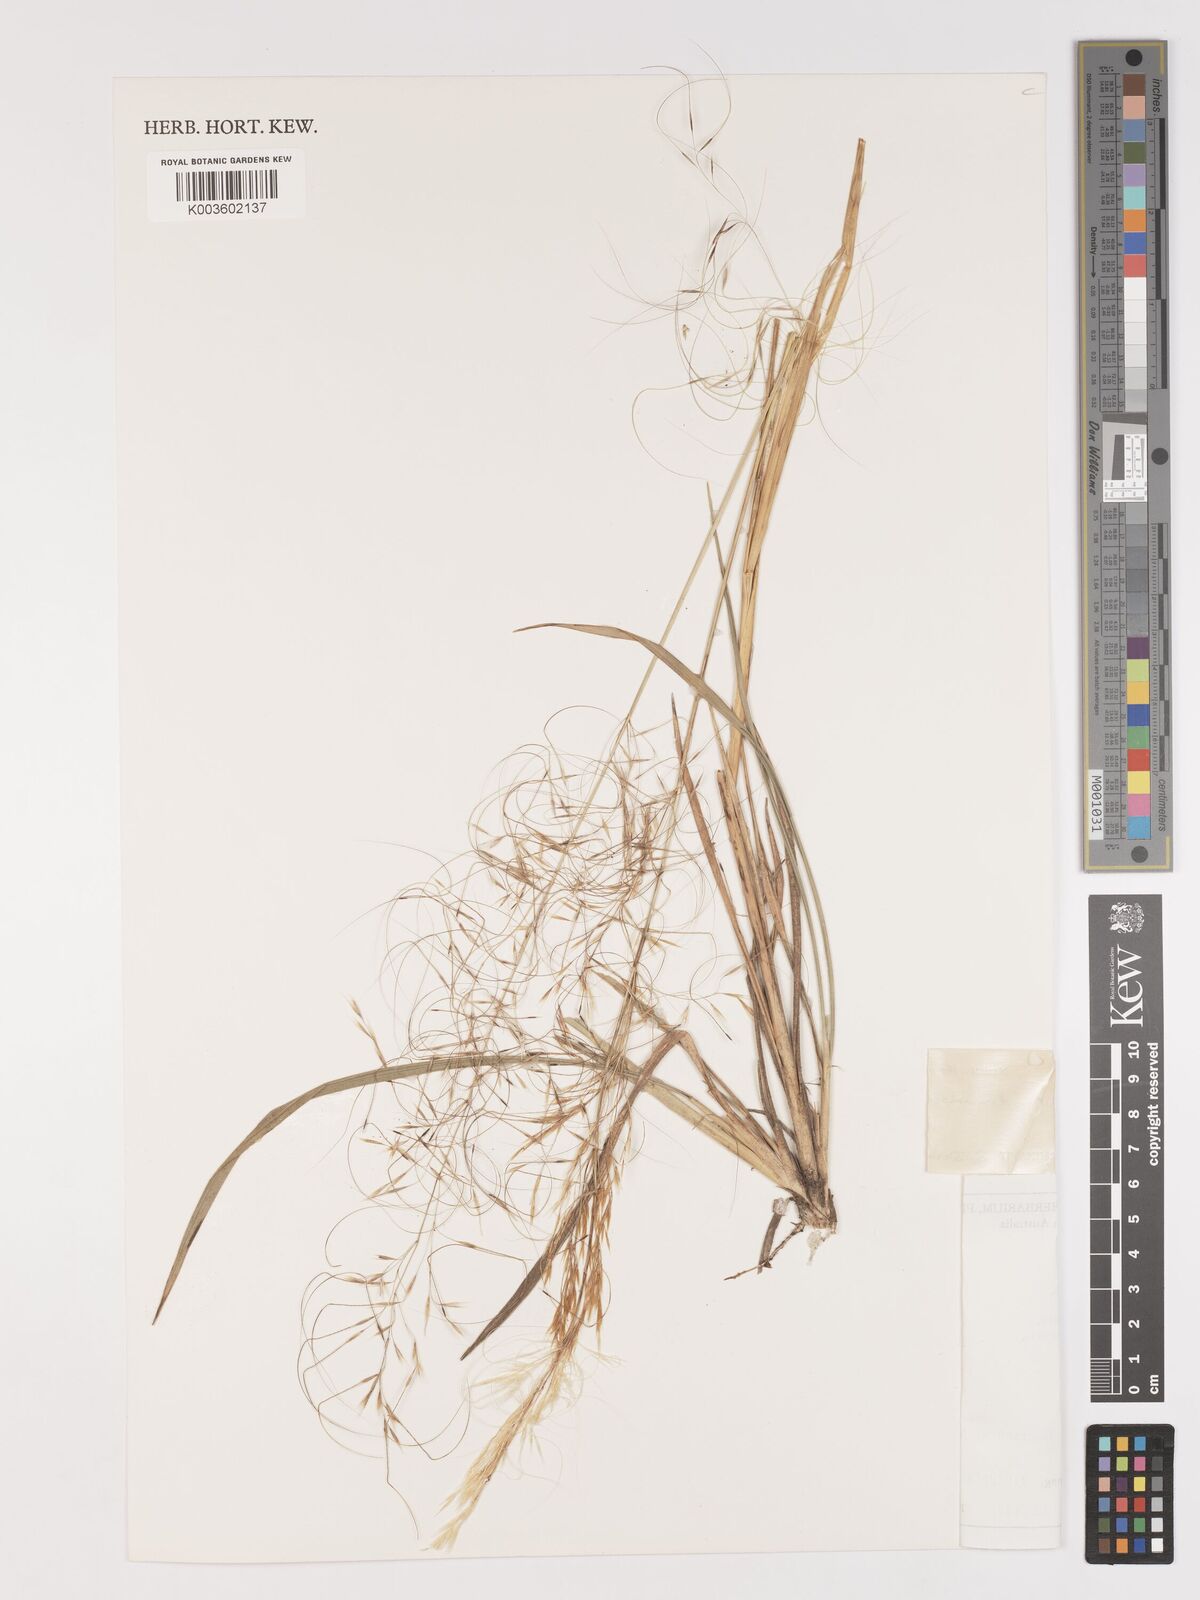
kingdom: Plantae
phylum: Tracheophyta
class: Liliopsida
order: Poales
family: Poaceae
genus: Austrostipa
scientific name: Austrostipa drummondii
